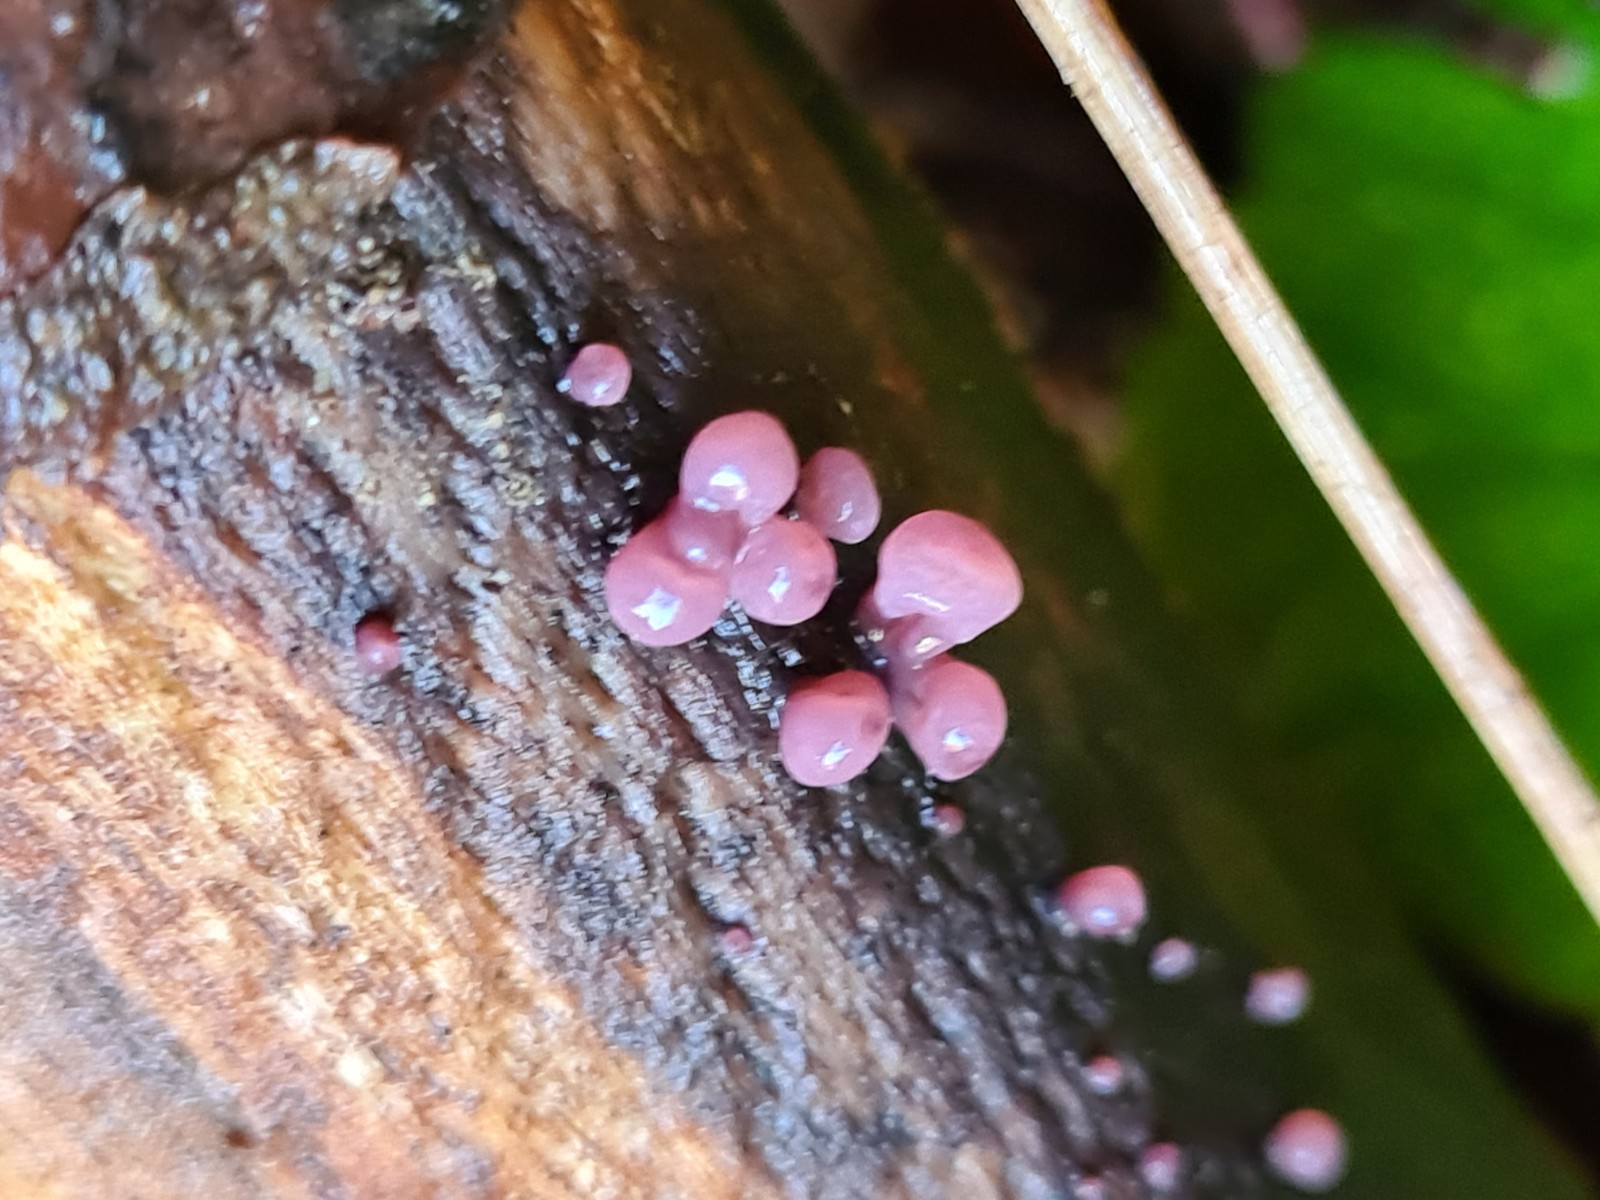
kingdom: Fungi
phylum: Ascomycota
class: Leotiomycetes
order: Helotiales
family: Gelatinodiscaceae
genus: Ascocoryne
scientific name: Ascocoryne sarcoides
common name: rødlilla sejskive
